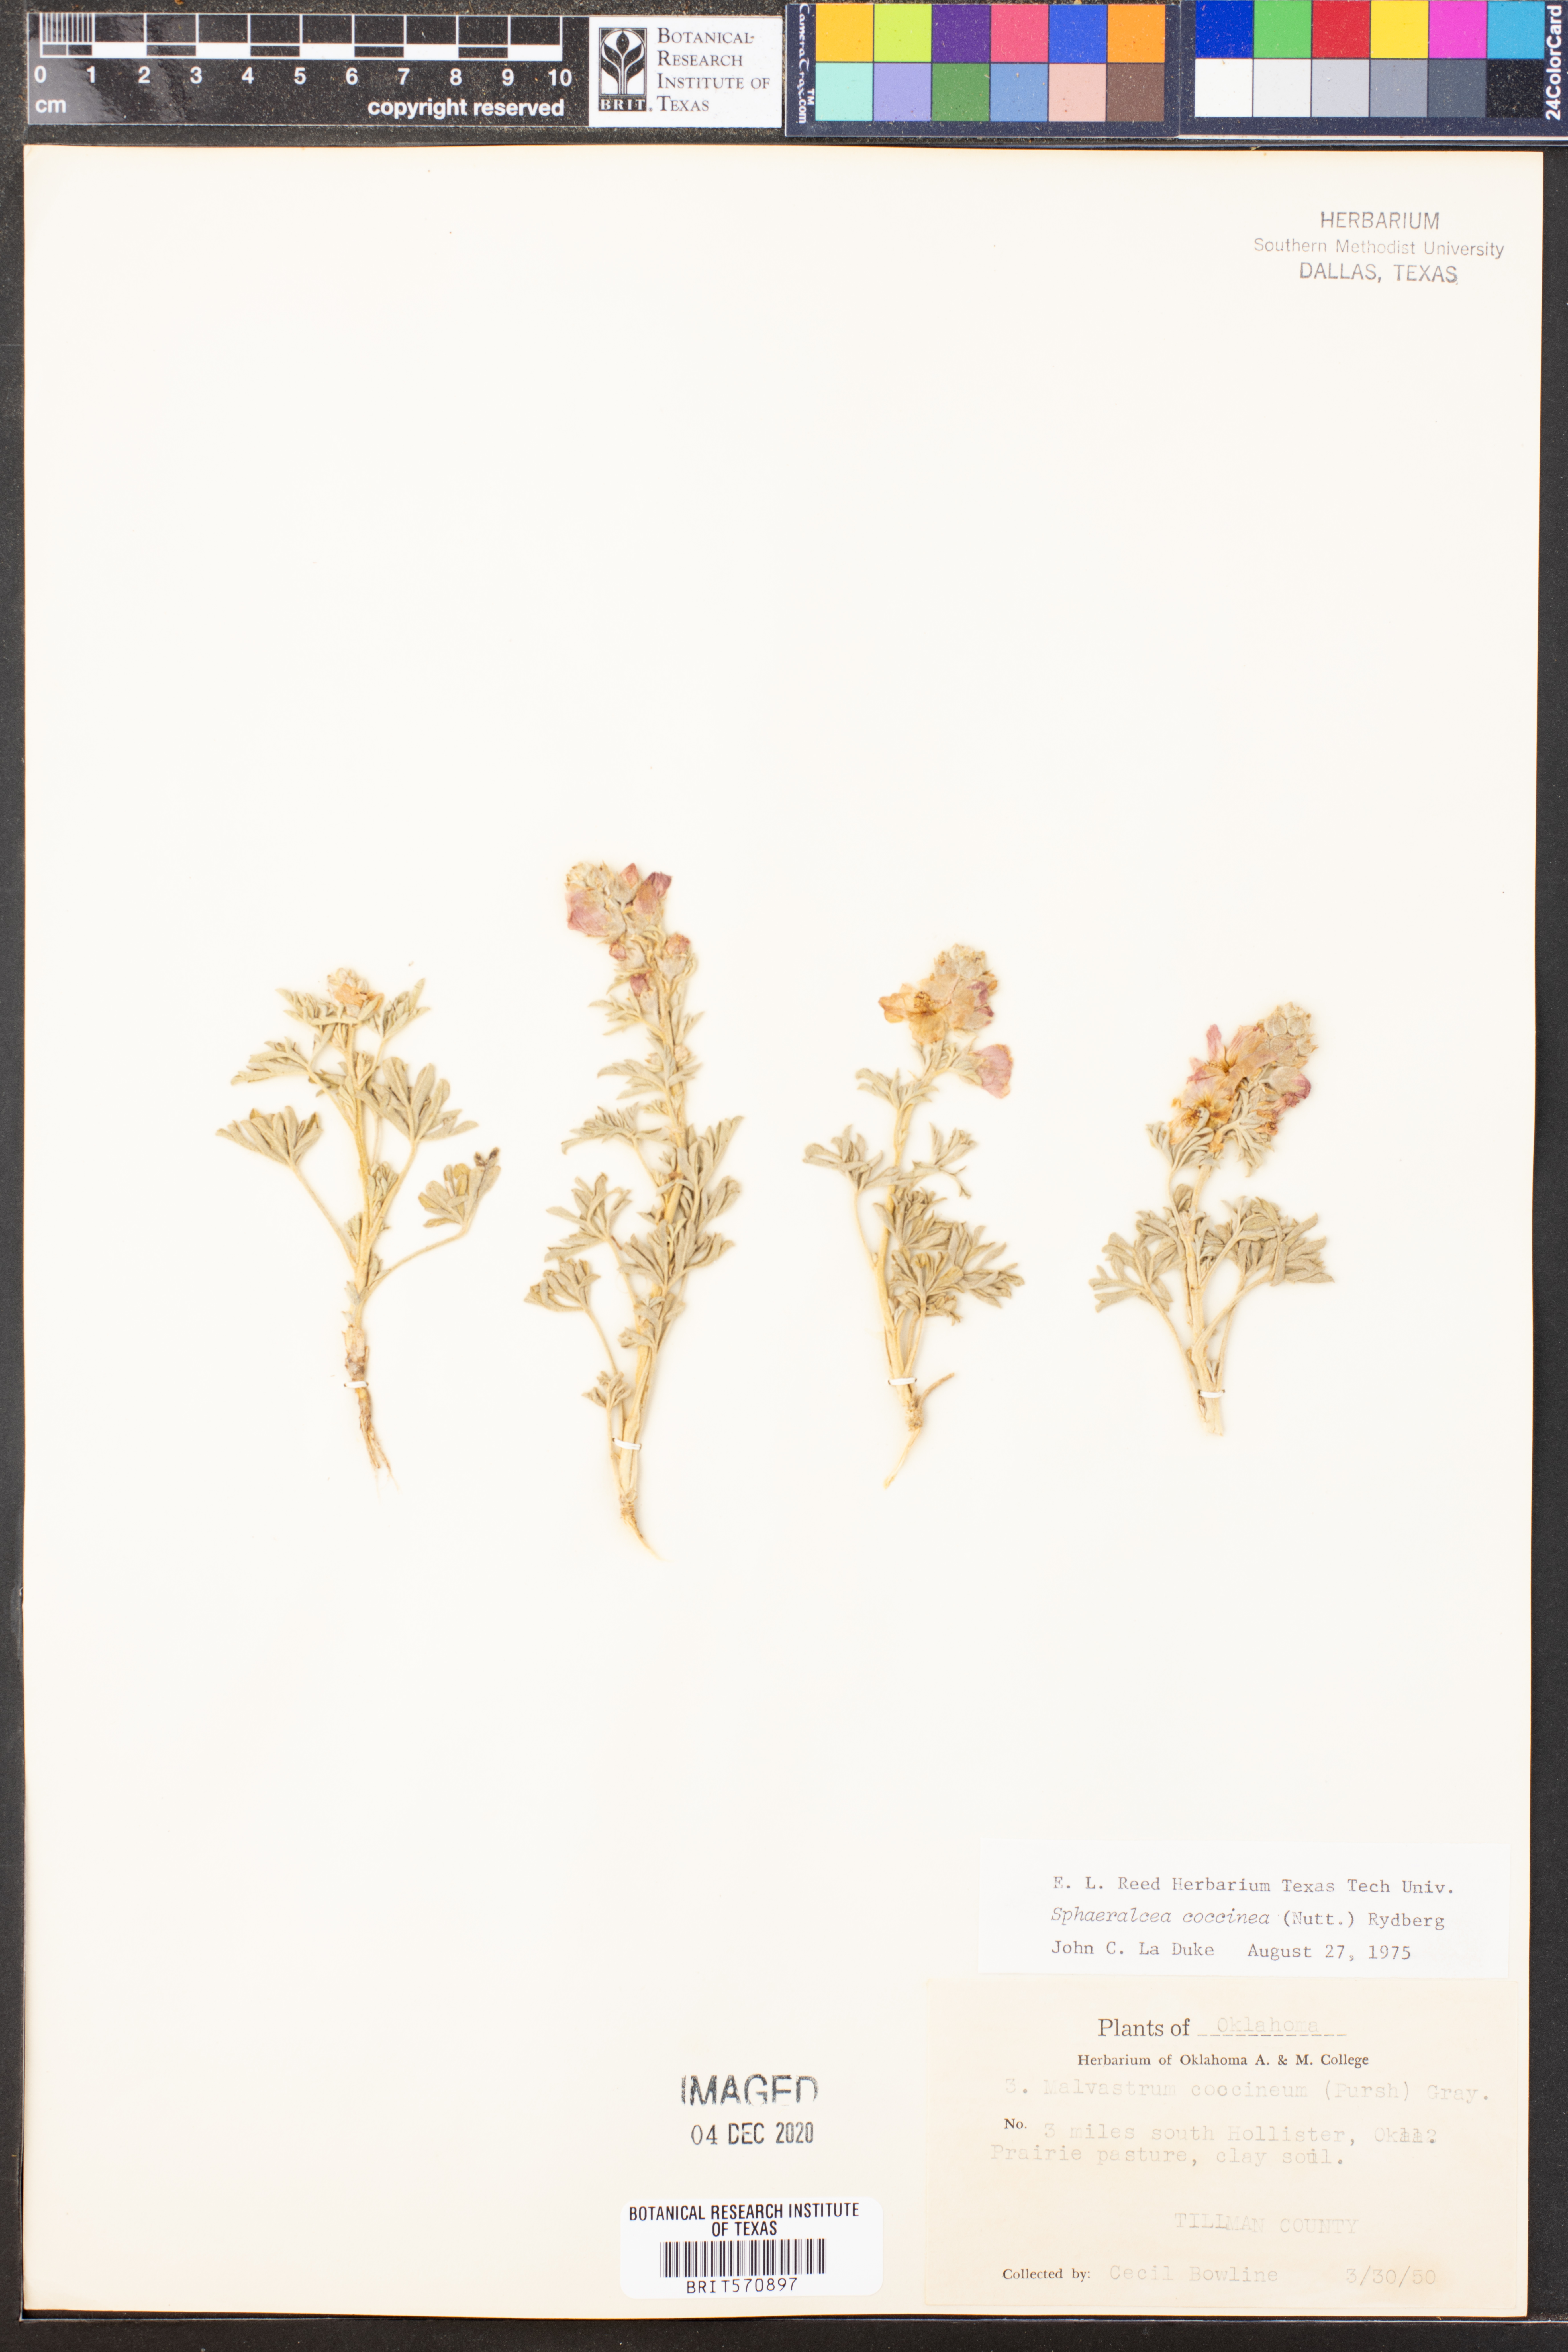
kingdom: Plantae
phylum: Tracheophyta
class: Magnoliopsida
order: Malvales
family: Malvaceae
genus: Sphaeralcea
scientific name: Sphaeralcea coccinea
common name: Moss-rose
